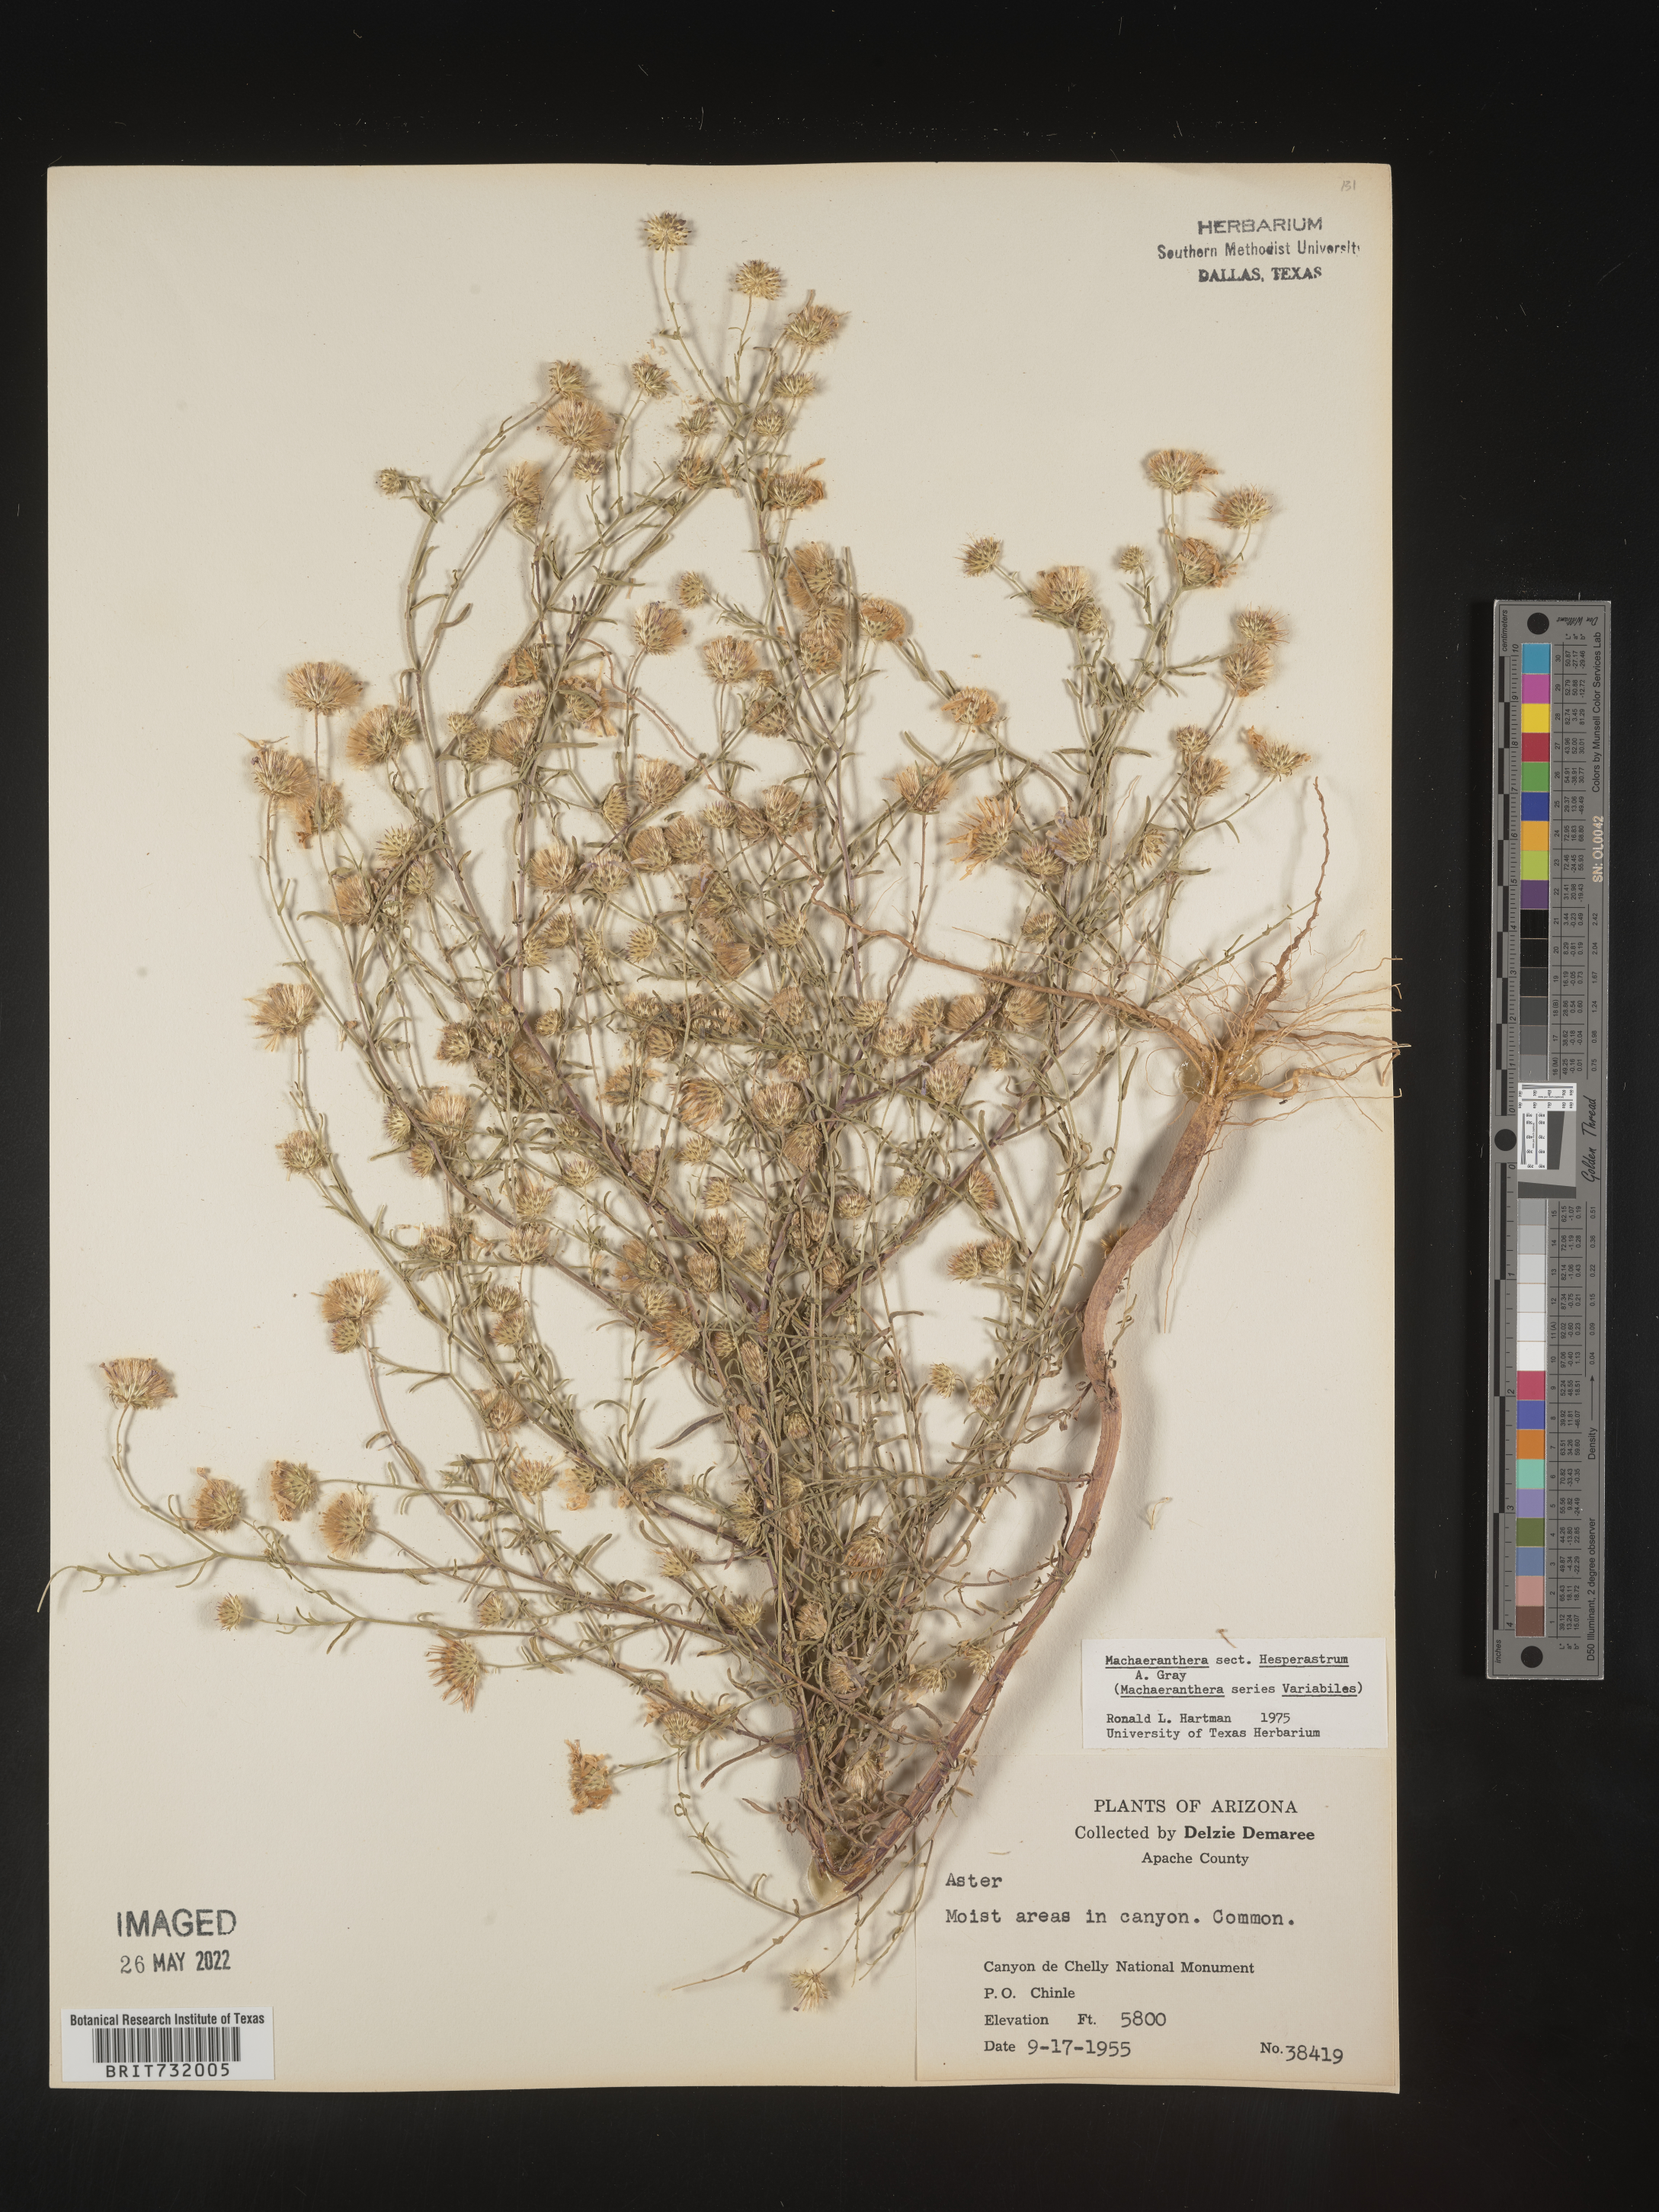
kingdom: Plantae
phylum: Tracheophyta
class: Magnoliopsida
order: Asterales
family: Asteraceae
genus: Machaeranthera
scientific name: Machaeranthera
